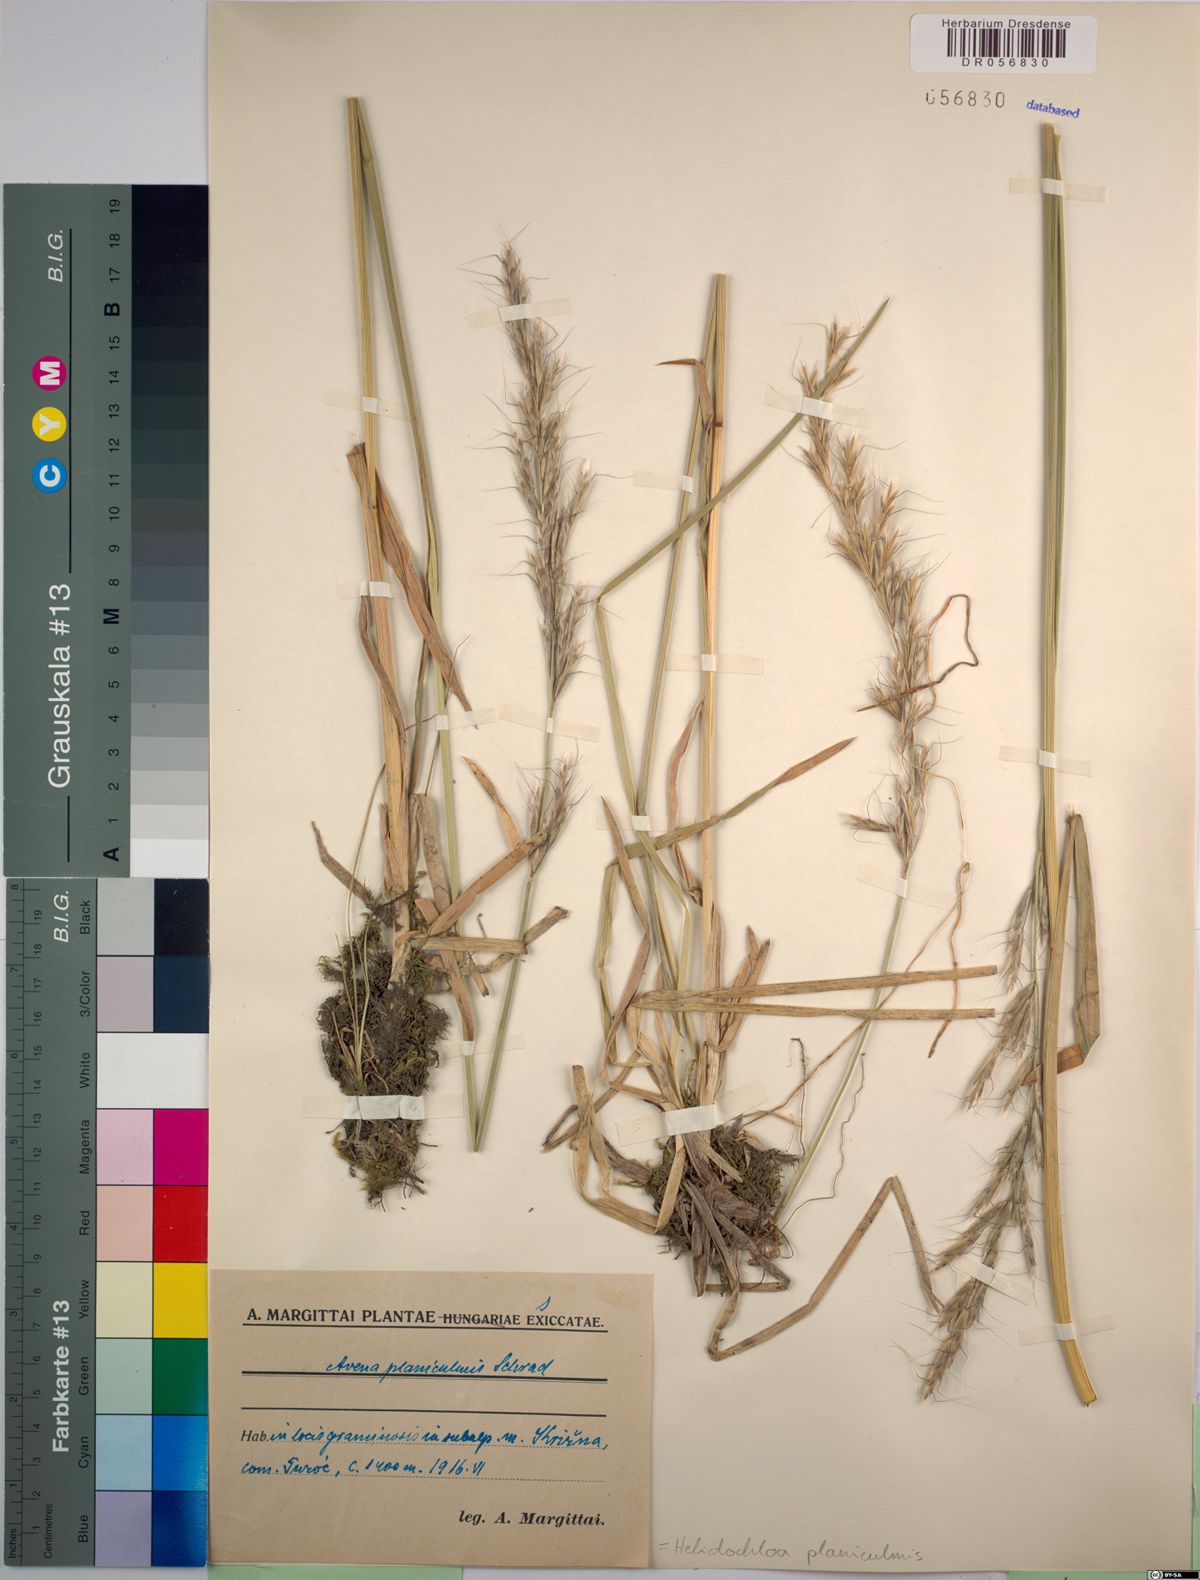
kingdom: Plantae
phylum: Tracheophyta
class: Liliopsida
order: Poales
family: Poaceae
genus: Helictochloa
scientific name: Helictochloa planiculmis
